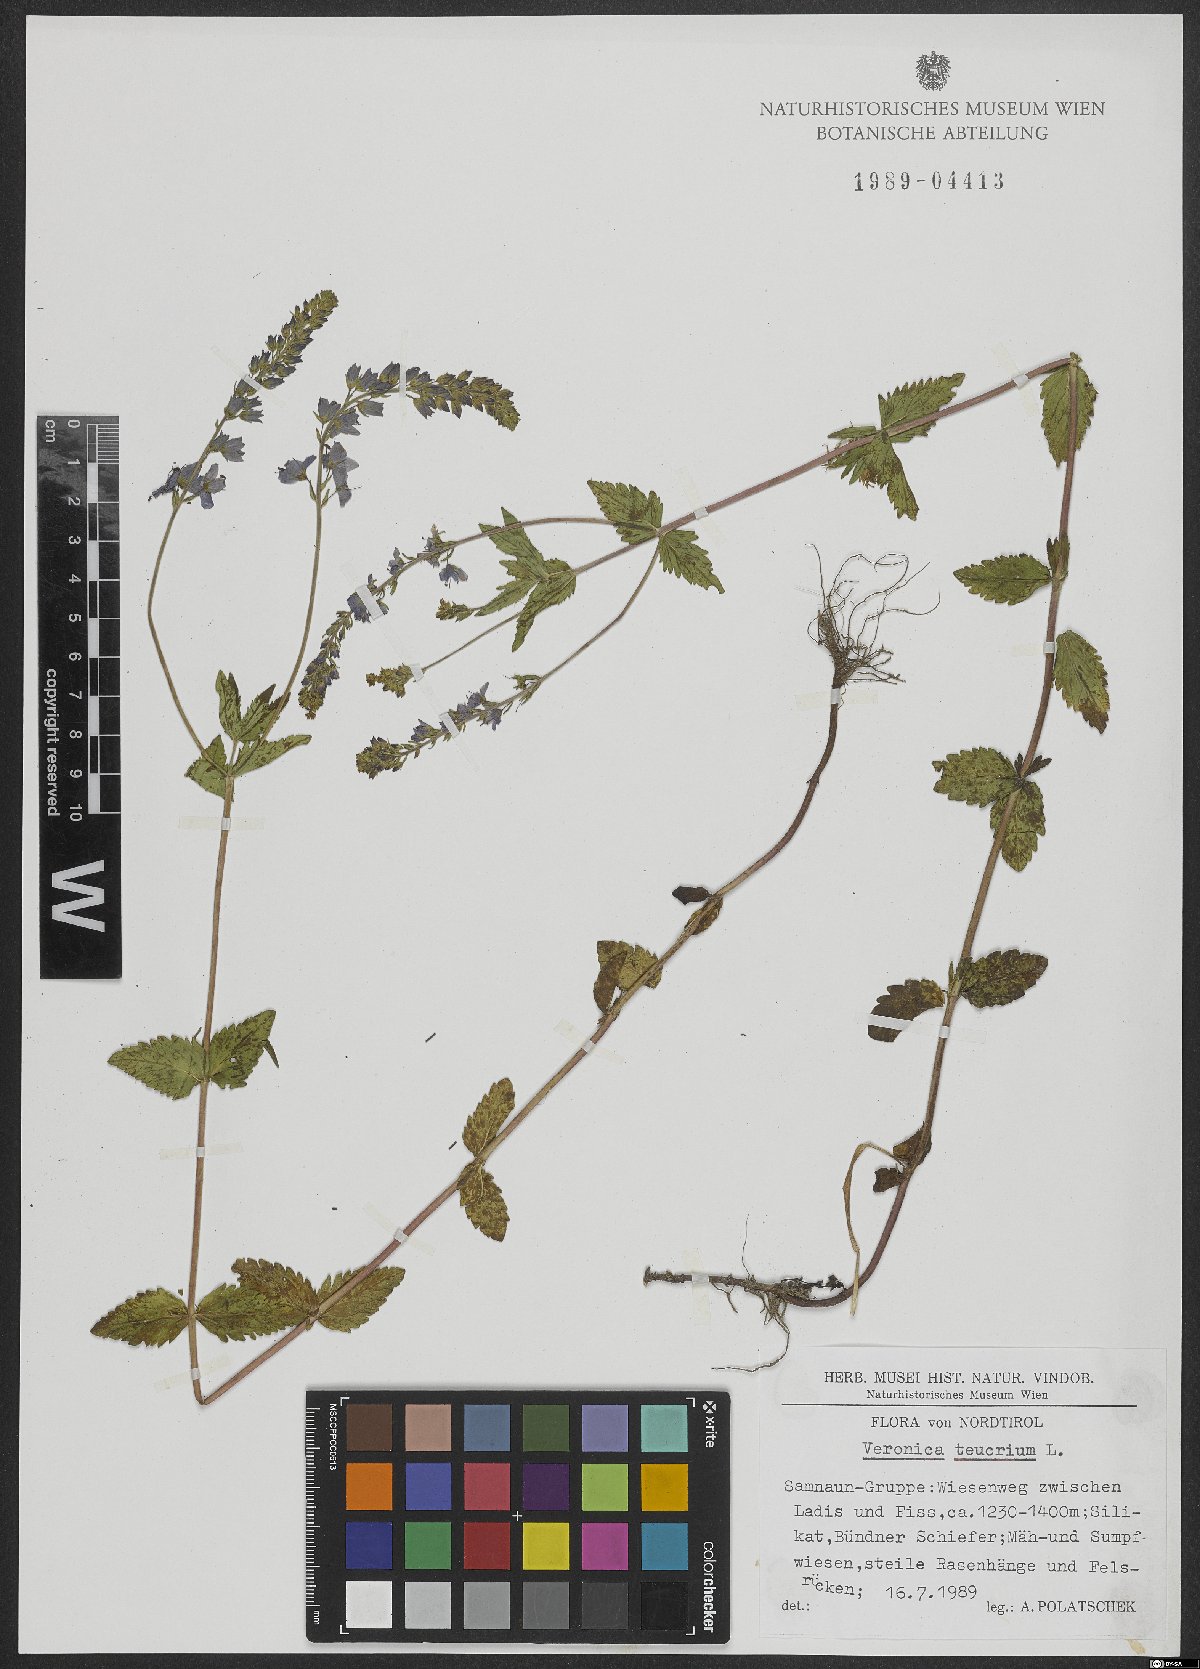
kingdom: Plantae
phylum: Tracheophyta
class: Magnoliopsida
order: Lamiales
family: Plantaginaceae
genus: Veronica
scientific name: Veronica teucrium
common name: Large speedwell
